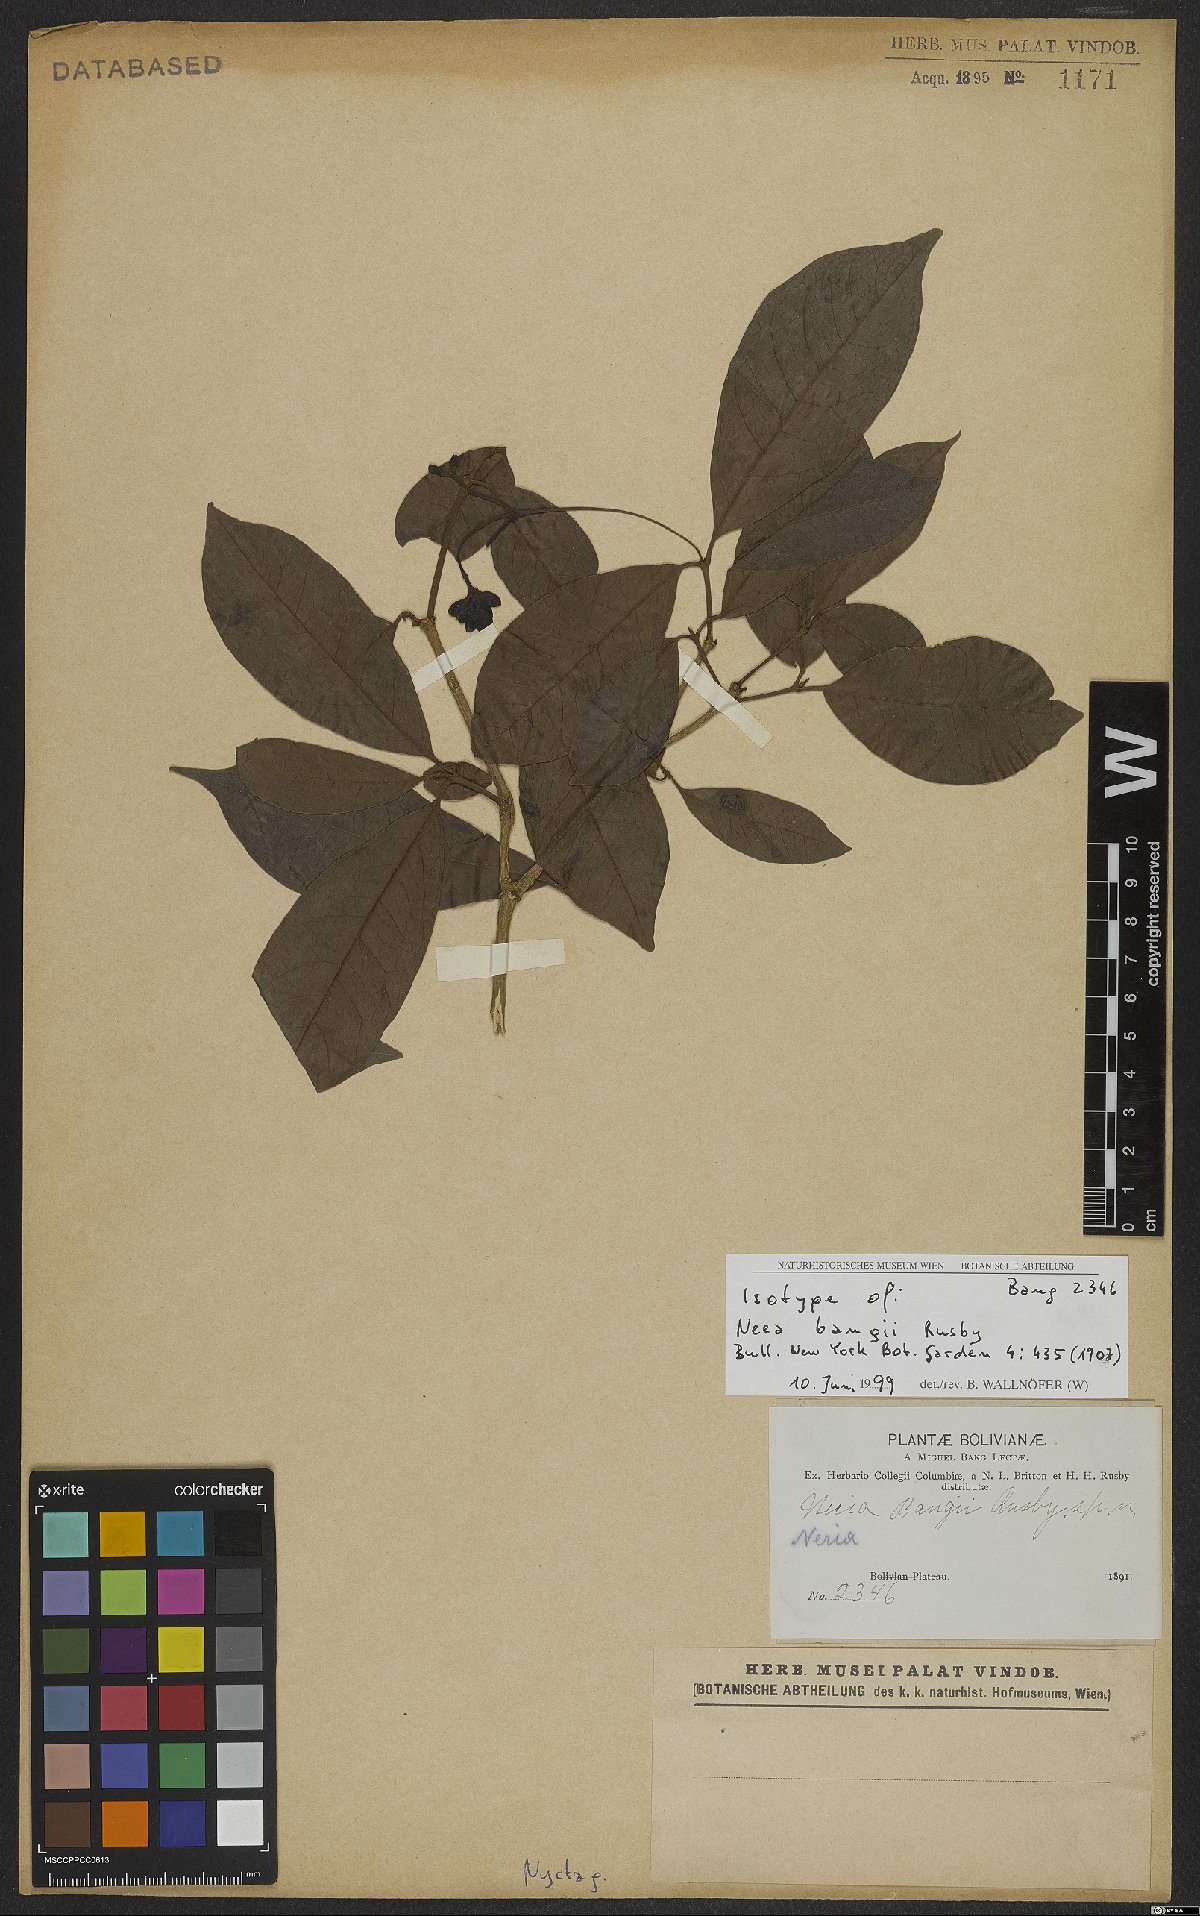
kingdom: Plantae
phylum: Tracheophyta
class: Magnoliopsida
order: Caryophyllales
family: Nyctaginaceae
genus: Neea
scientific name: Neea bangii
